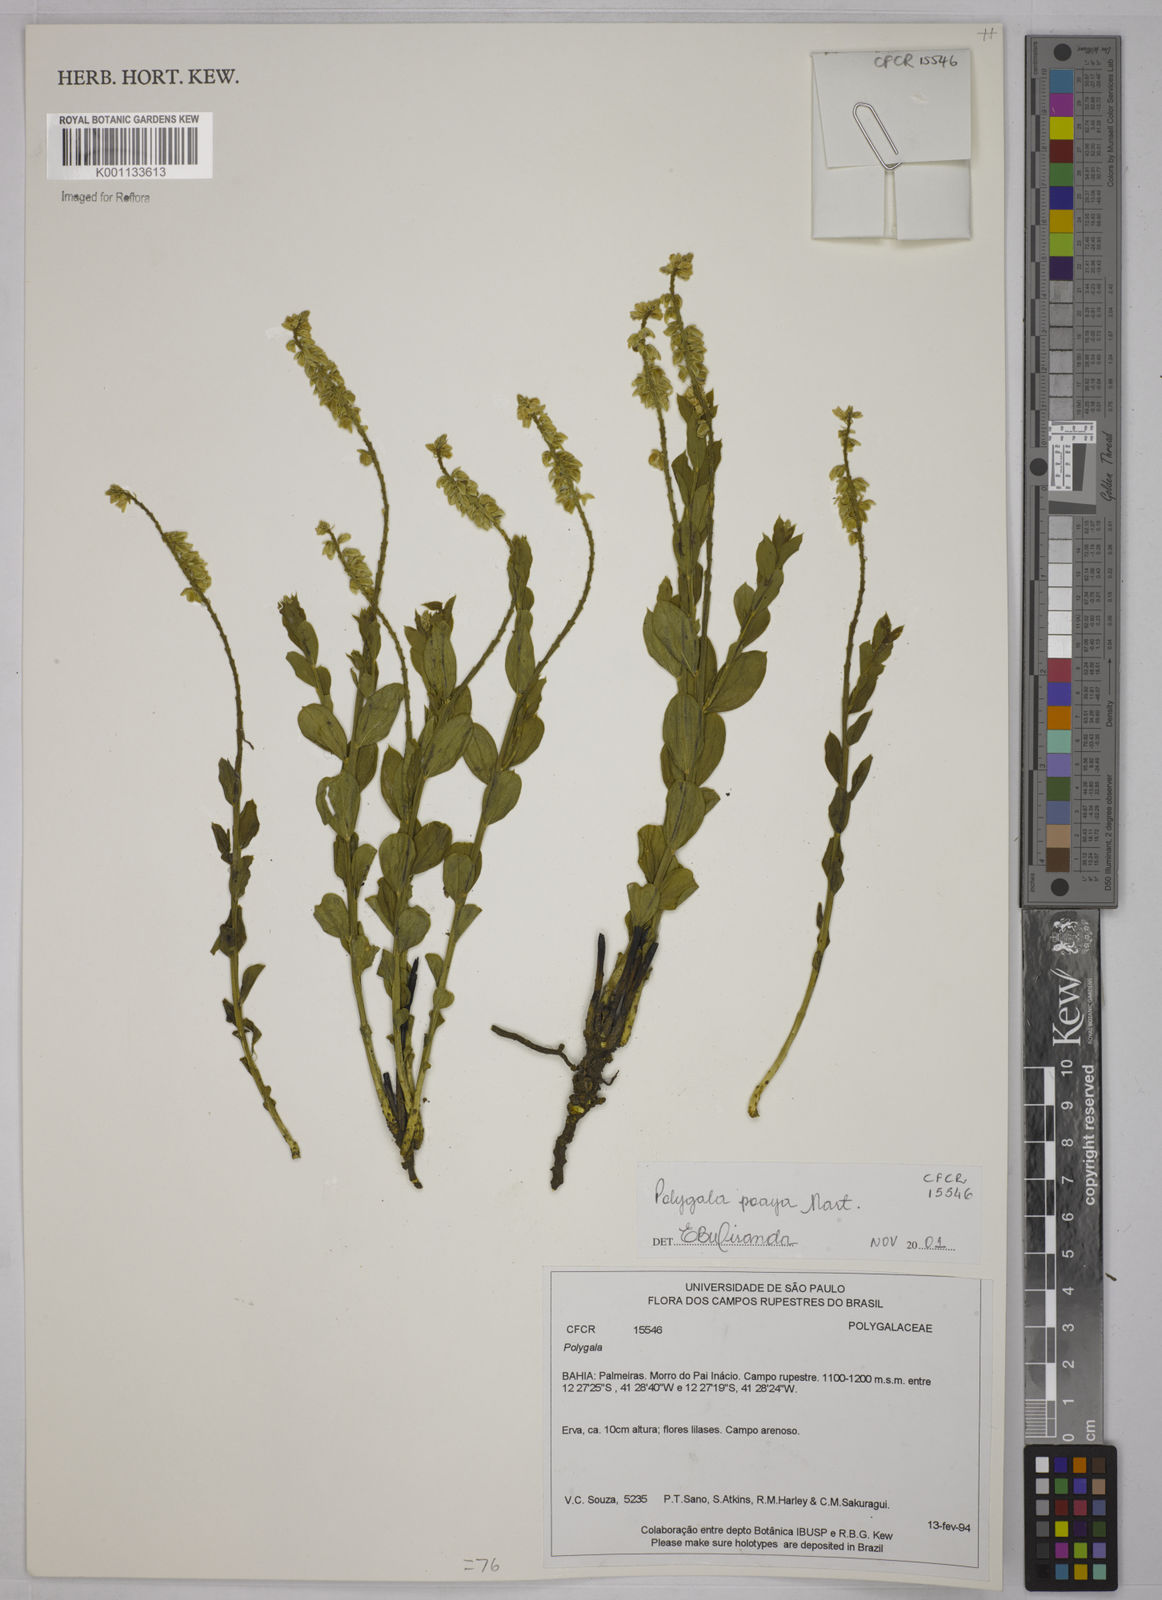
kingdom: Plantae
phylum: Tracheophyta
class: Magnoliopsida
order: Fabales
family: Polygalaceae
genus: Polygala
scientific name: Polygala poaya
